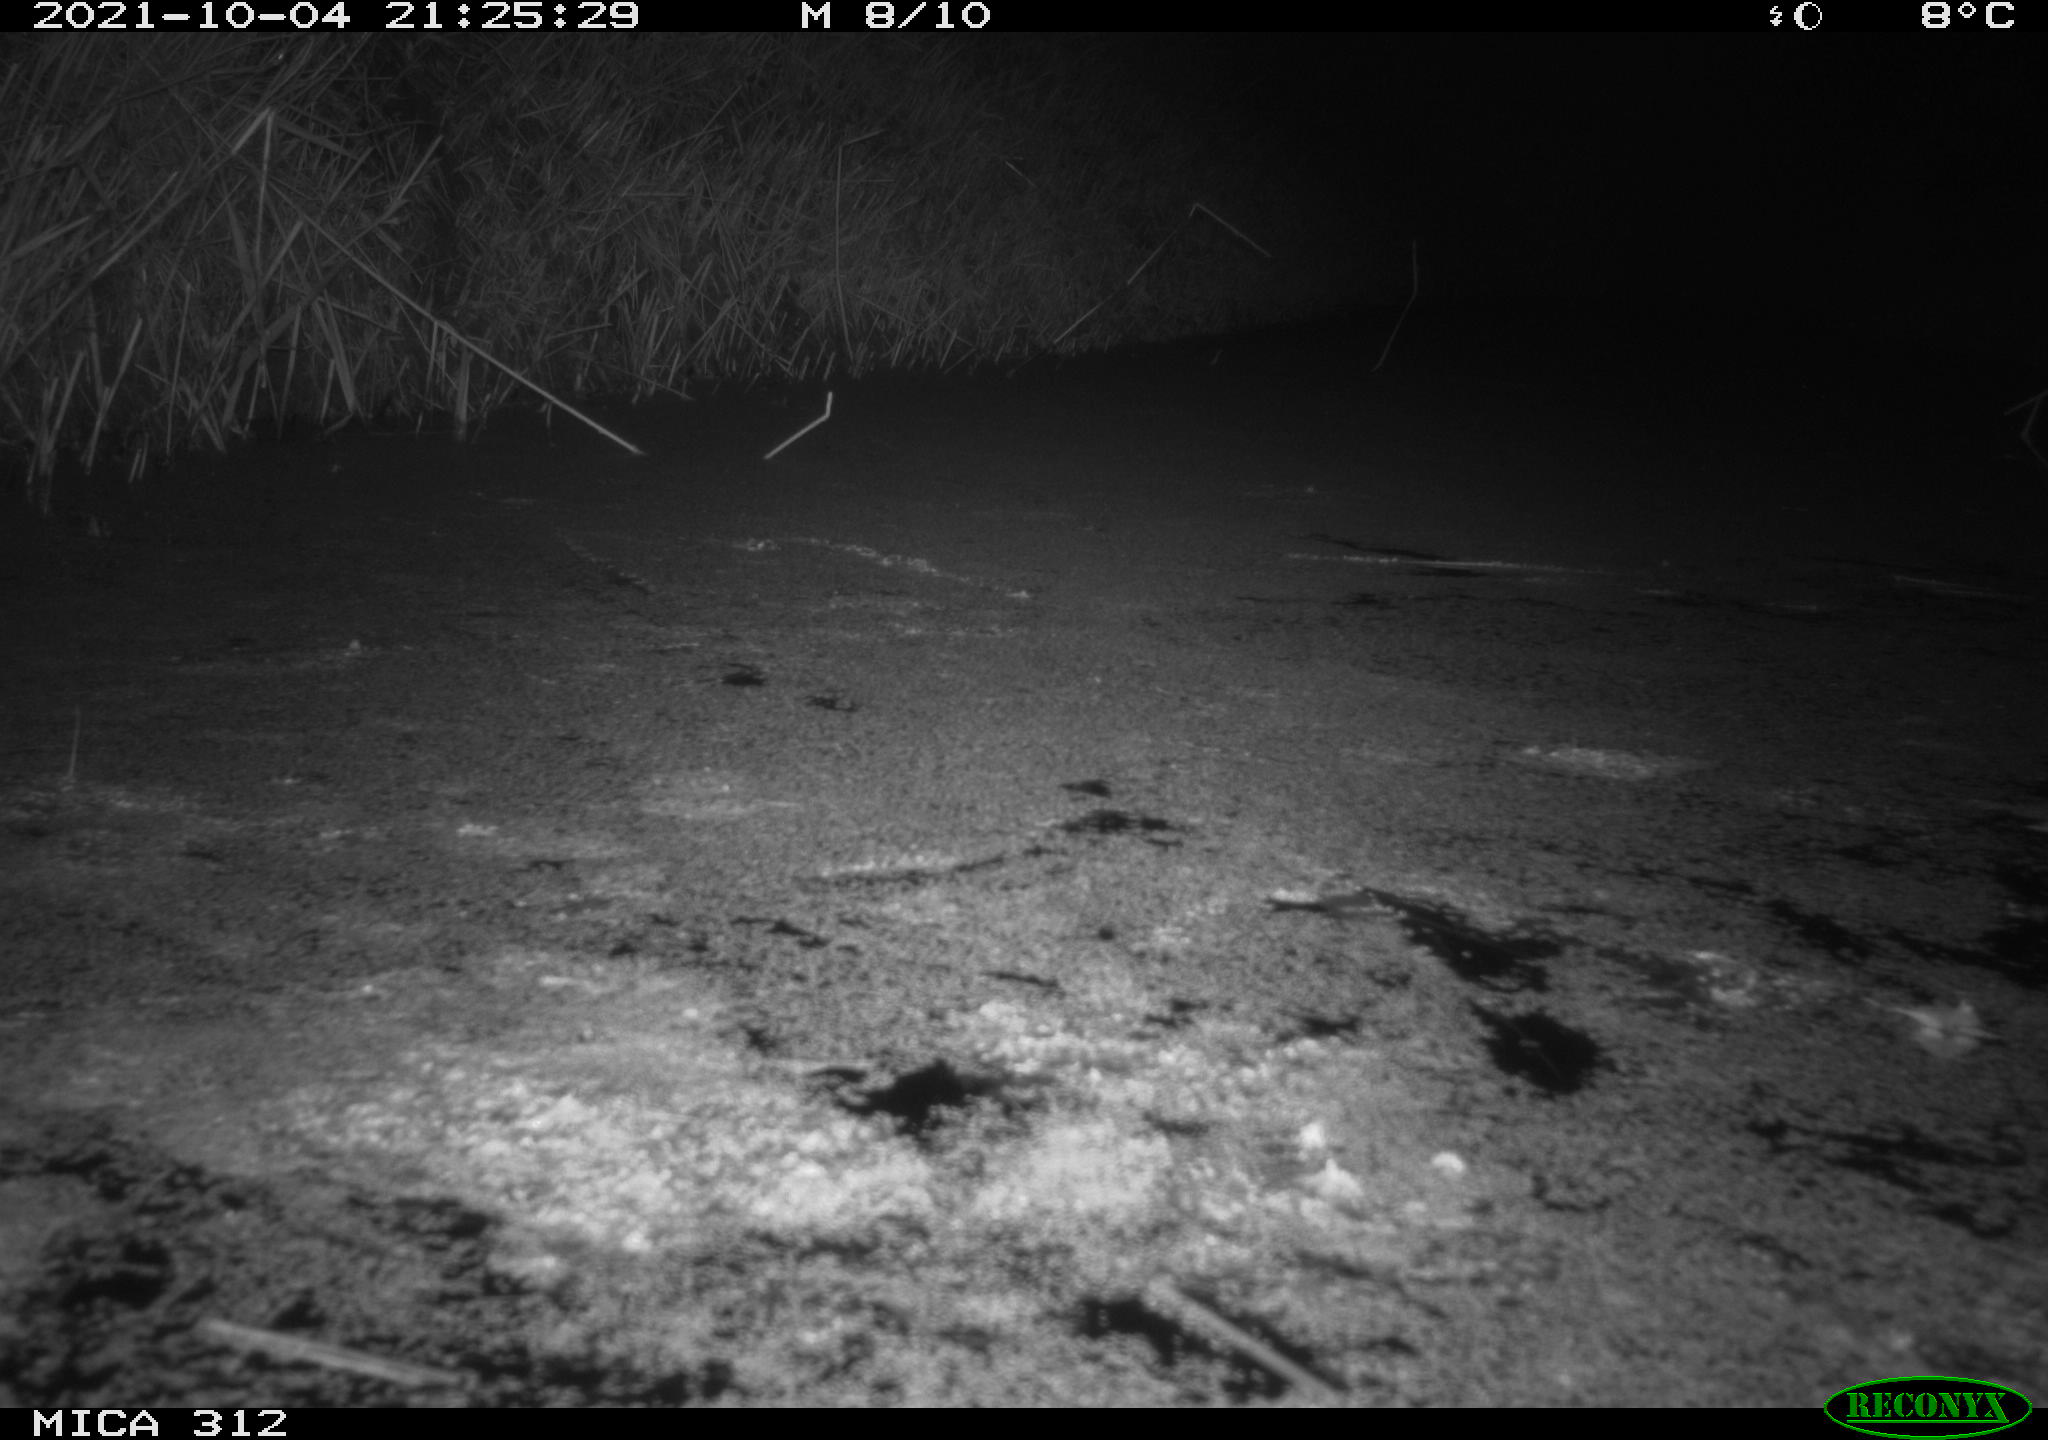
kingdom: Animalia
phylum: Chordata
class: Mammalia
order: Rodentia
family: Muridae
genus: Rattus
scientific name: Rattus norvegicus
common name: Brown rat
